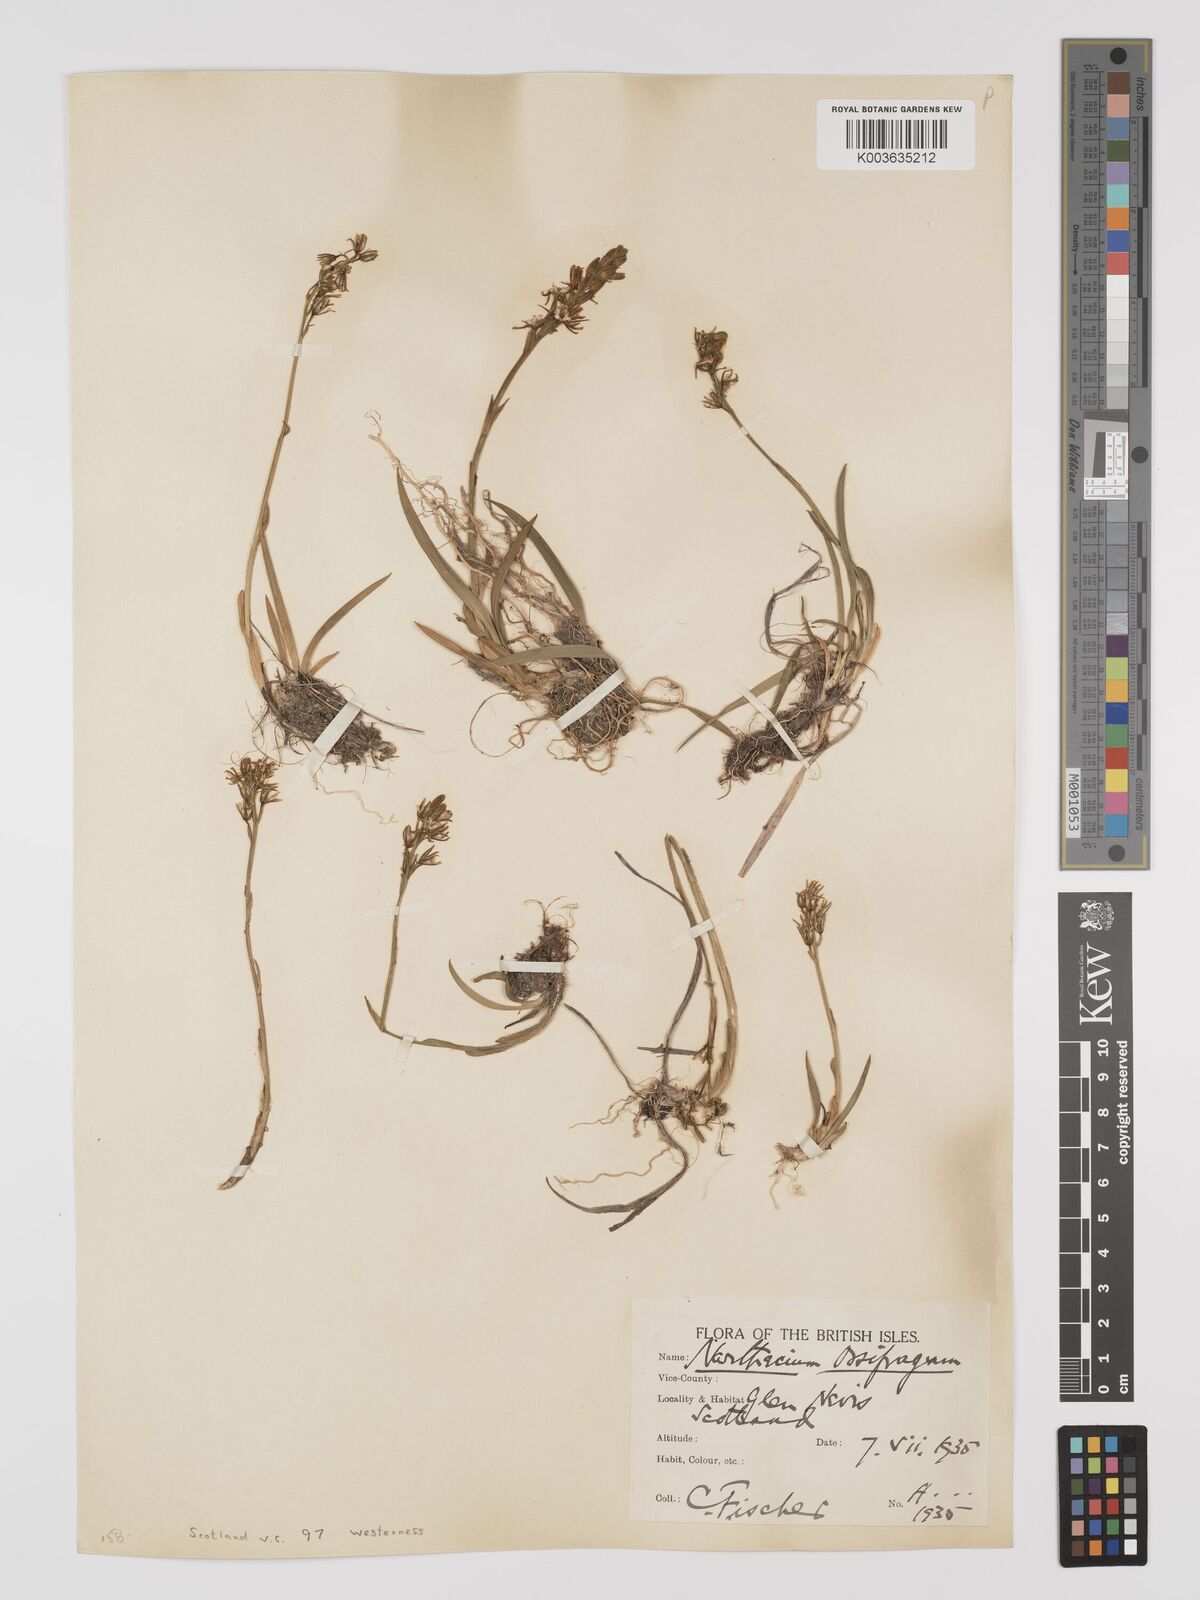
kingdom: Plantae
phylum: Tracheophyta
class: Liliopsida
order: Dioscoreales
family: Nartheciaceae
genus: Narthecium
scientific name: Narthecium
